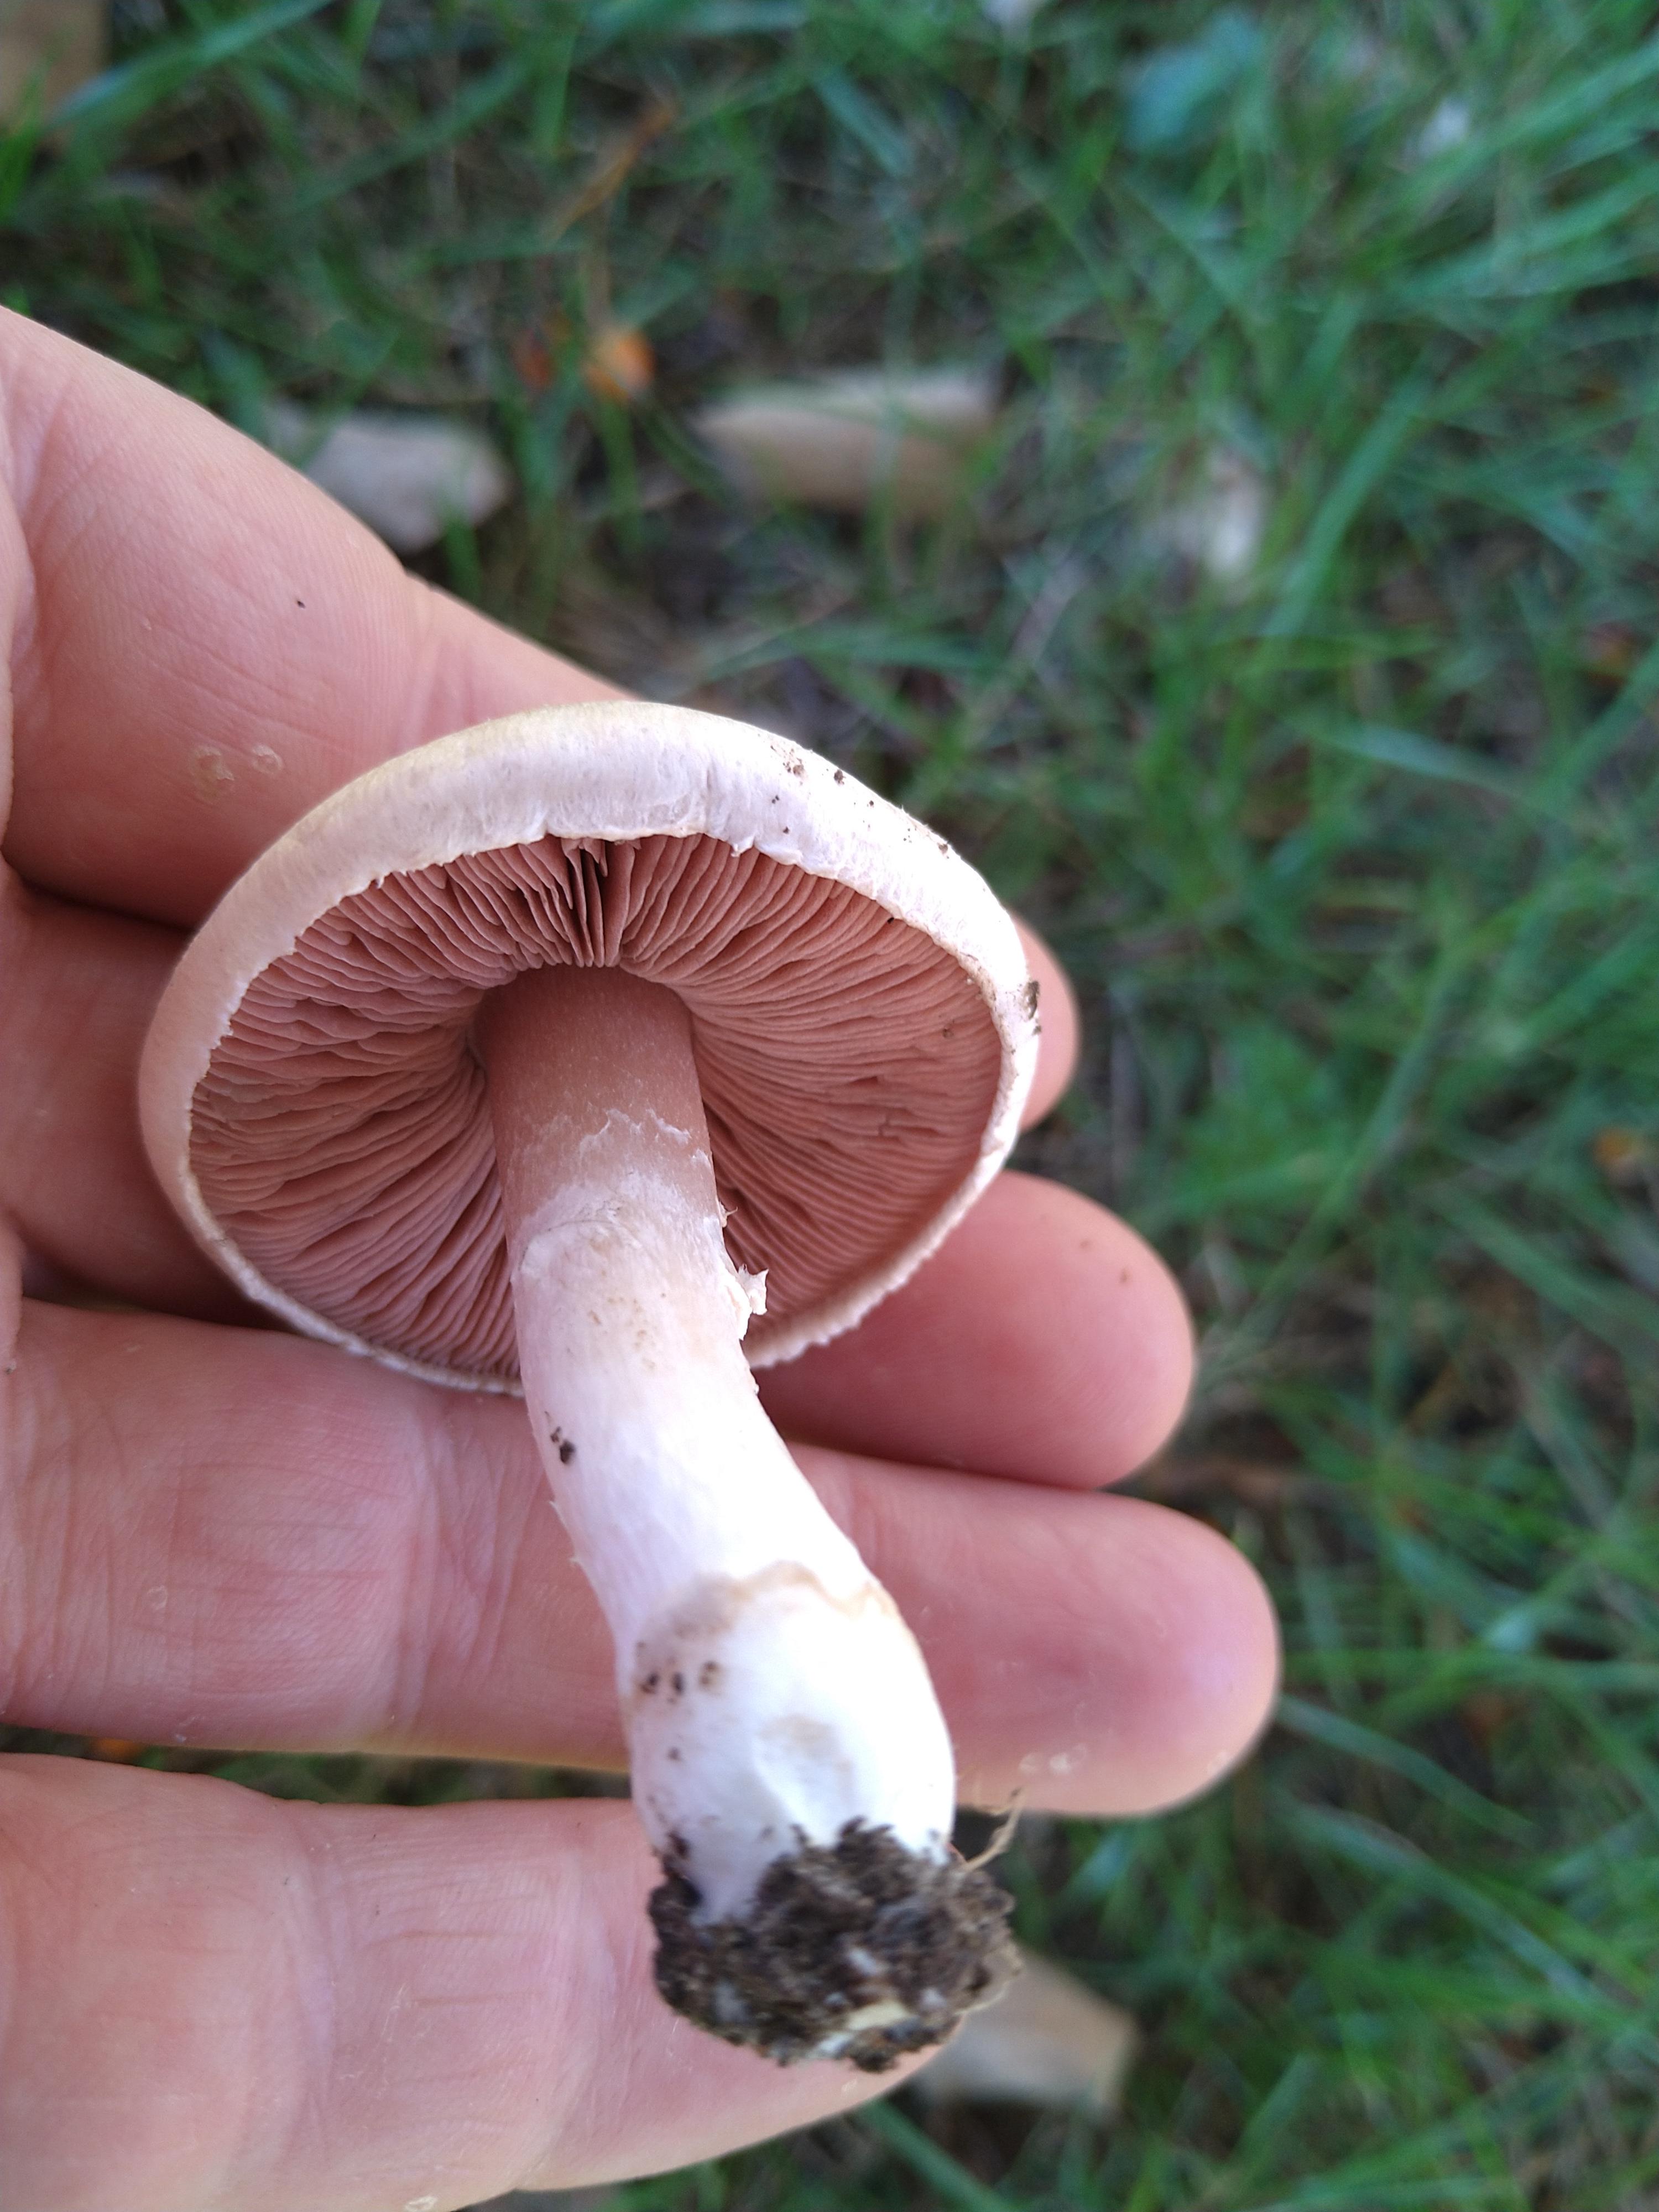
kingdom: Fungi
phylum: Basidiomycota
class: Agaricomycetes
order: Agaricales
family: Agaricaceae
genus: Agaricus
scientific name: Agaricus campestris
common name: mark-champignon
